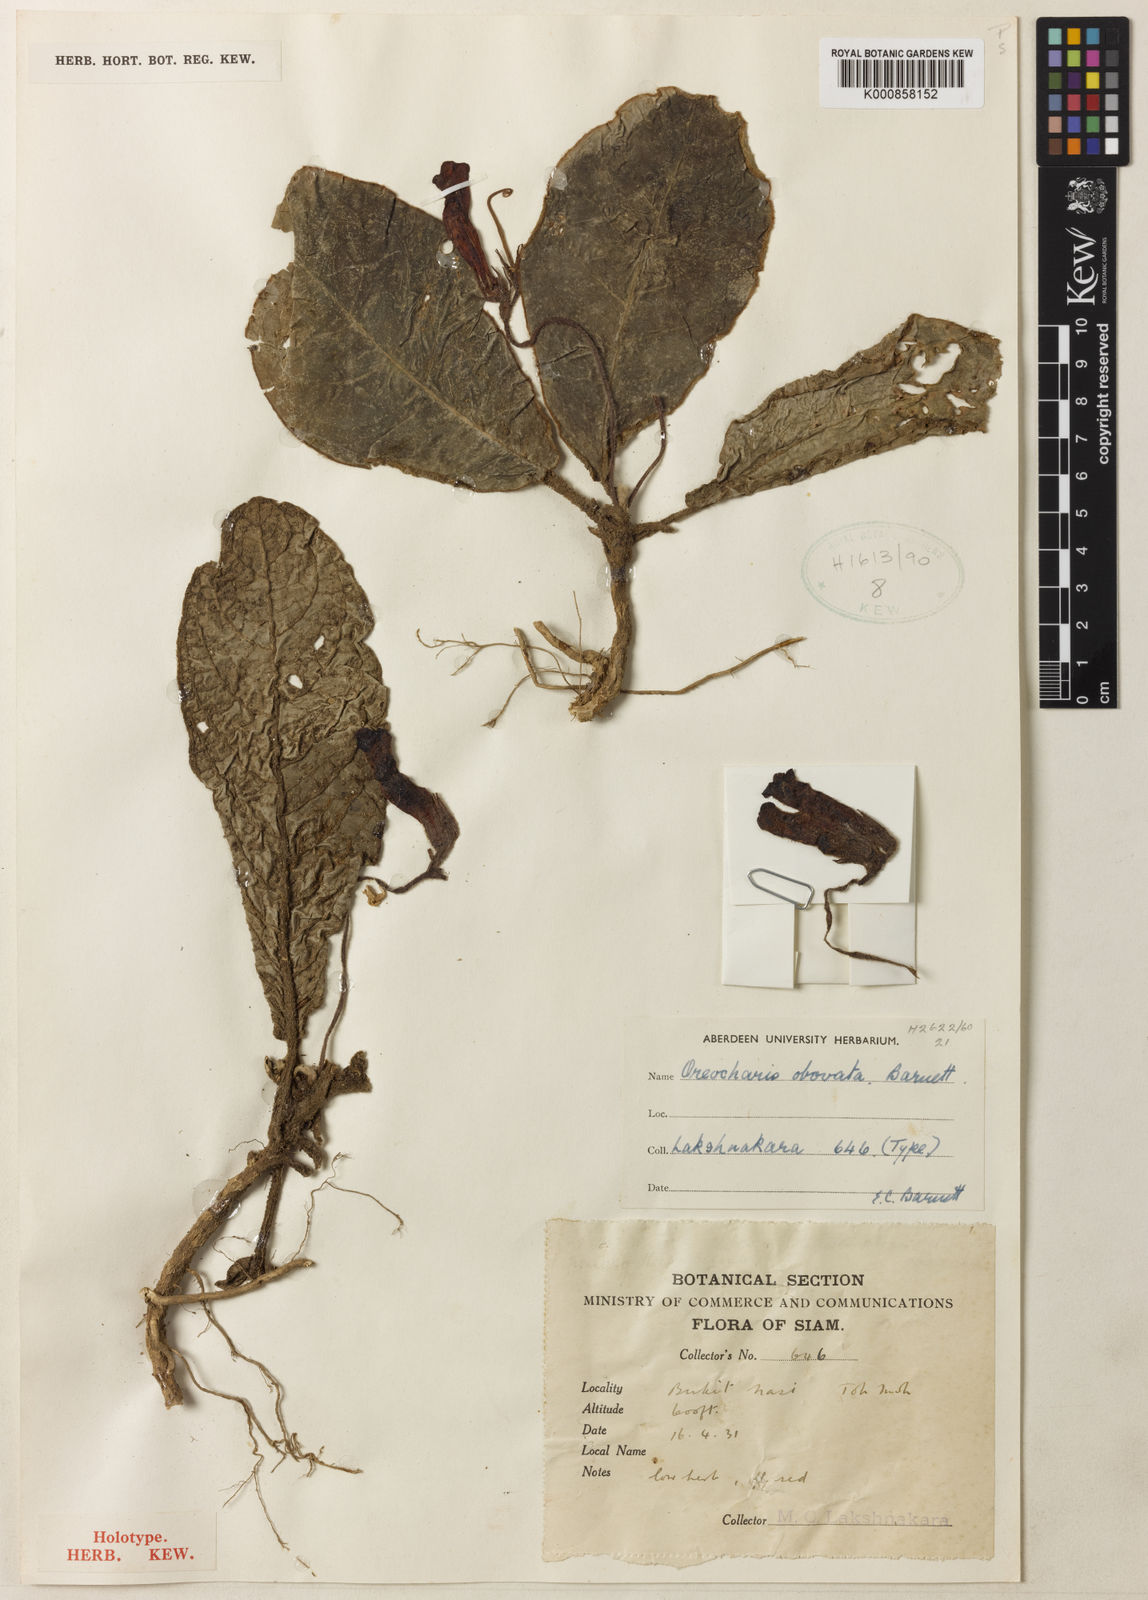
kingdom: Plantae
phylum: Tracheophyta
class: Magnoliopsida
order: Lamiales
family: Gesneriaceae
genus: Ridleyandra
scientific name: Ridleyandra flammea
